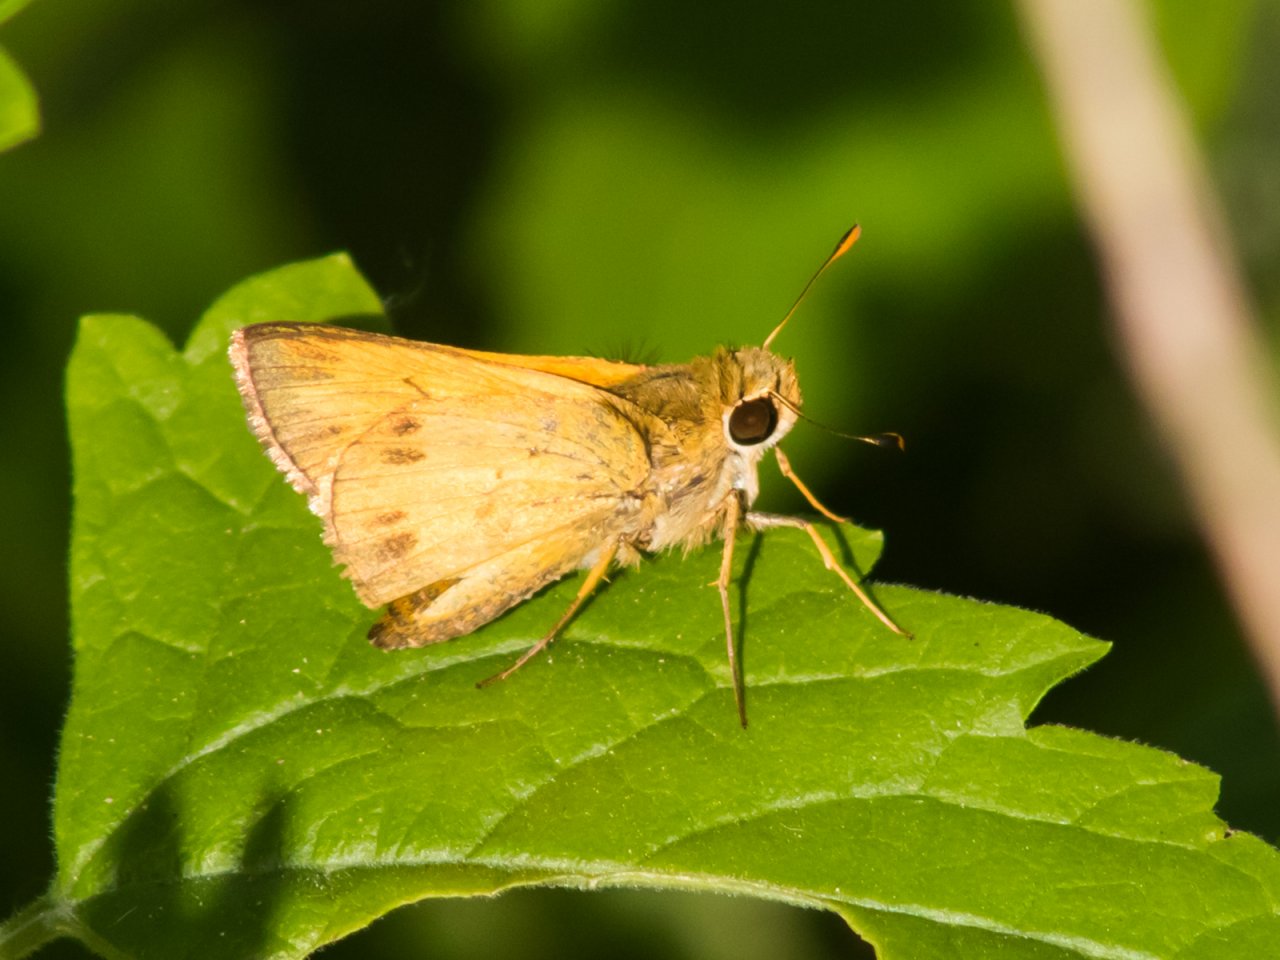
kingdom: Animalia
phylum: Arthropoda
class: Insecta
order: Lepidoptera
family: Hesperiidae
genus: Polites
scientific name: Polites vibex
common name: Whirlabout
